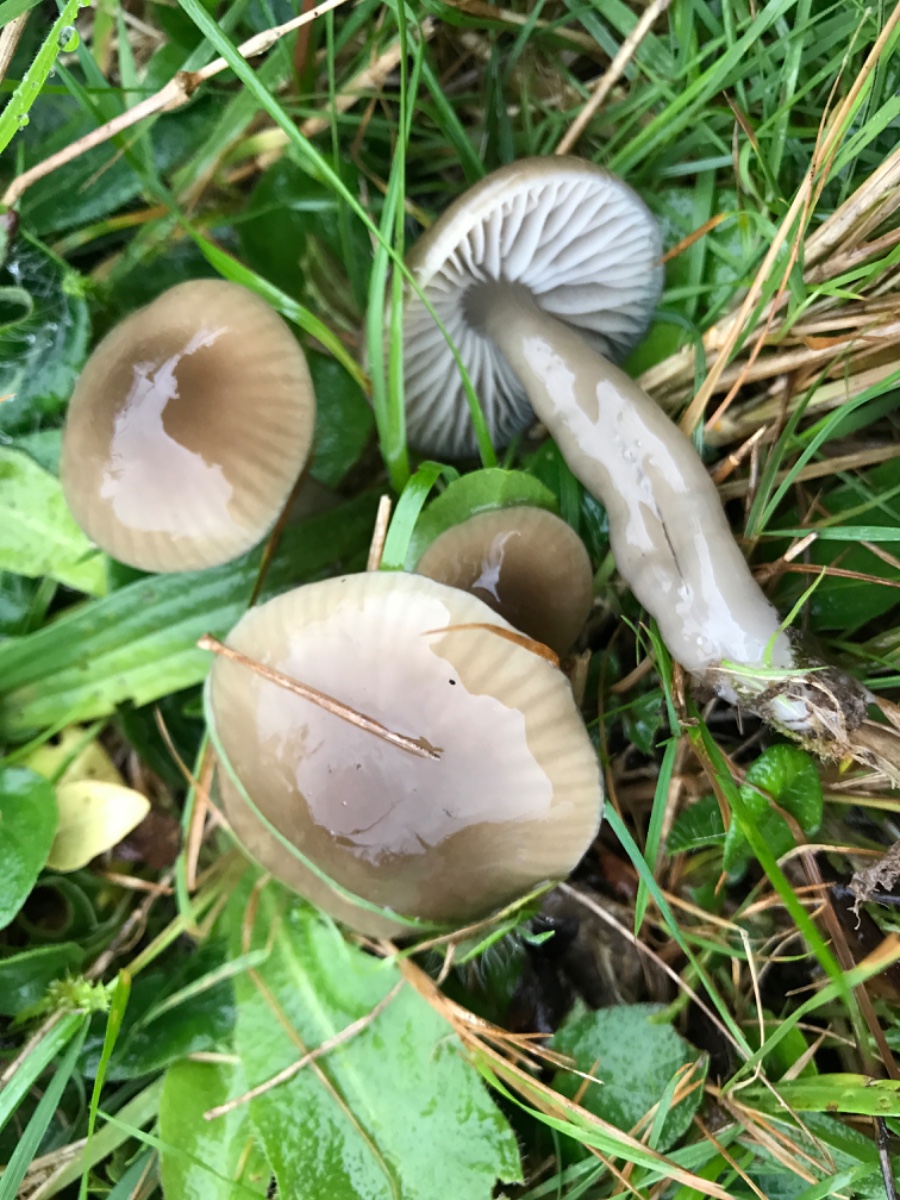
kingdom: Fungi
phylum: Basidiomycota
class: Agaricomycetes
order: Agaricales
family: Hygrophoraceae
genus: Gliophorus
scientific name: Gliophorus irrigatus
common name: slimet vokshat
